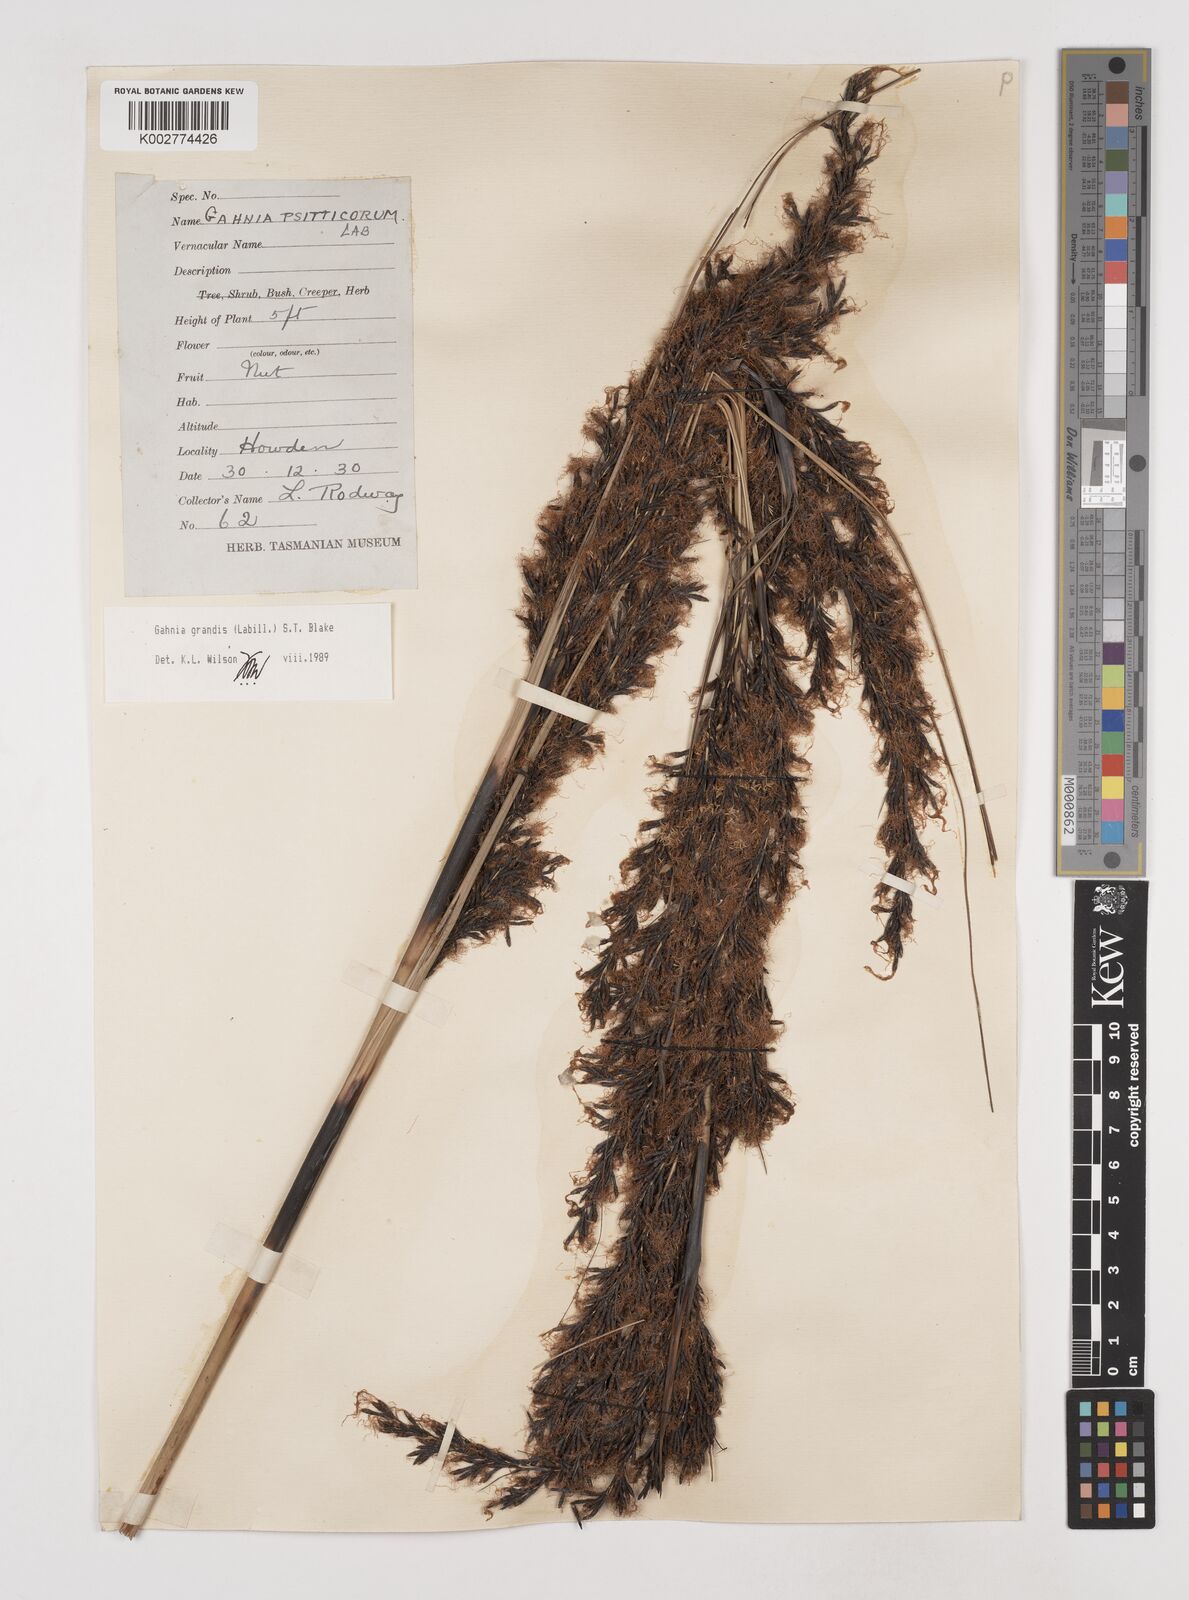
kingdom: Plantae
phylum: Tracheophyta
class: Liliopsida
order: Poales
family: Cyperaceae
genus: Gahnia
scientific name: Gahnia grandis
